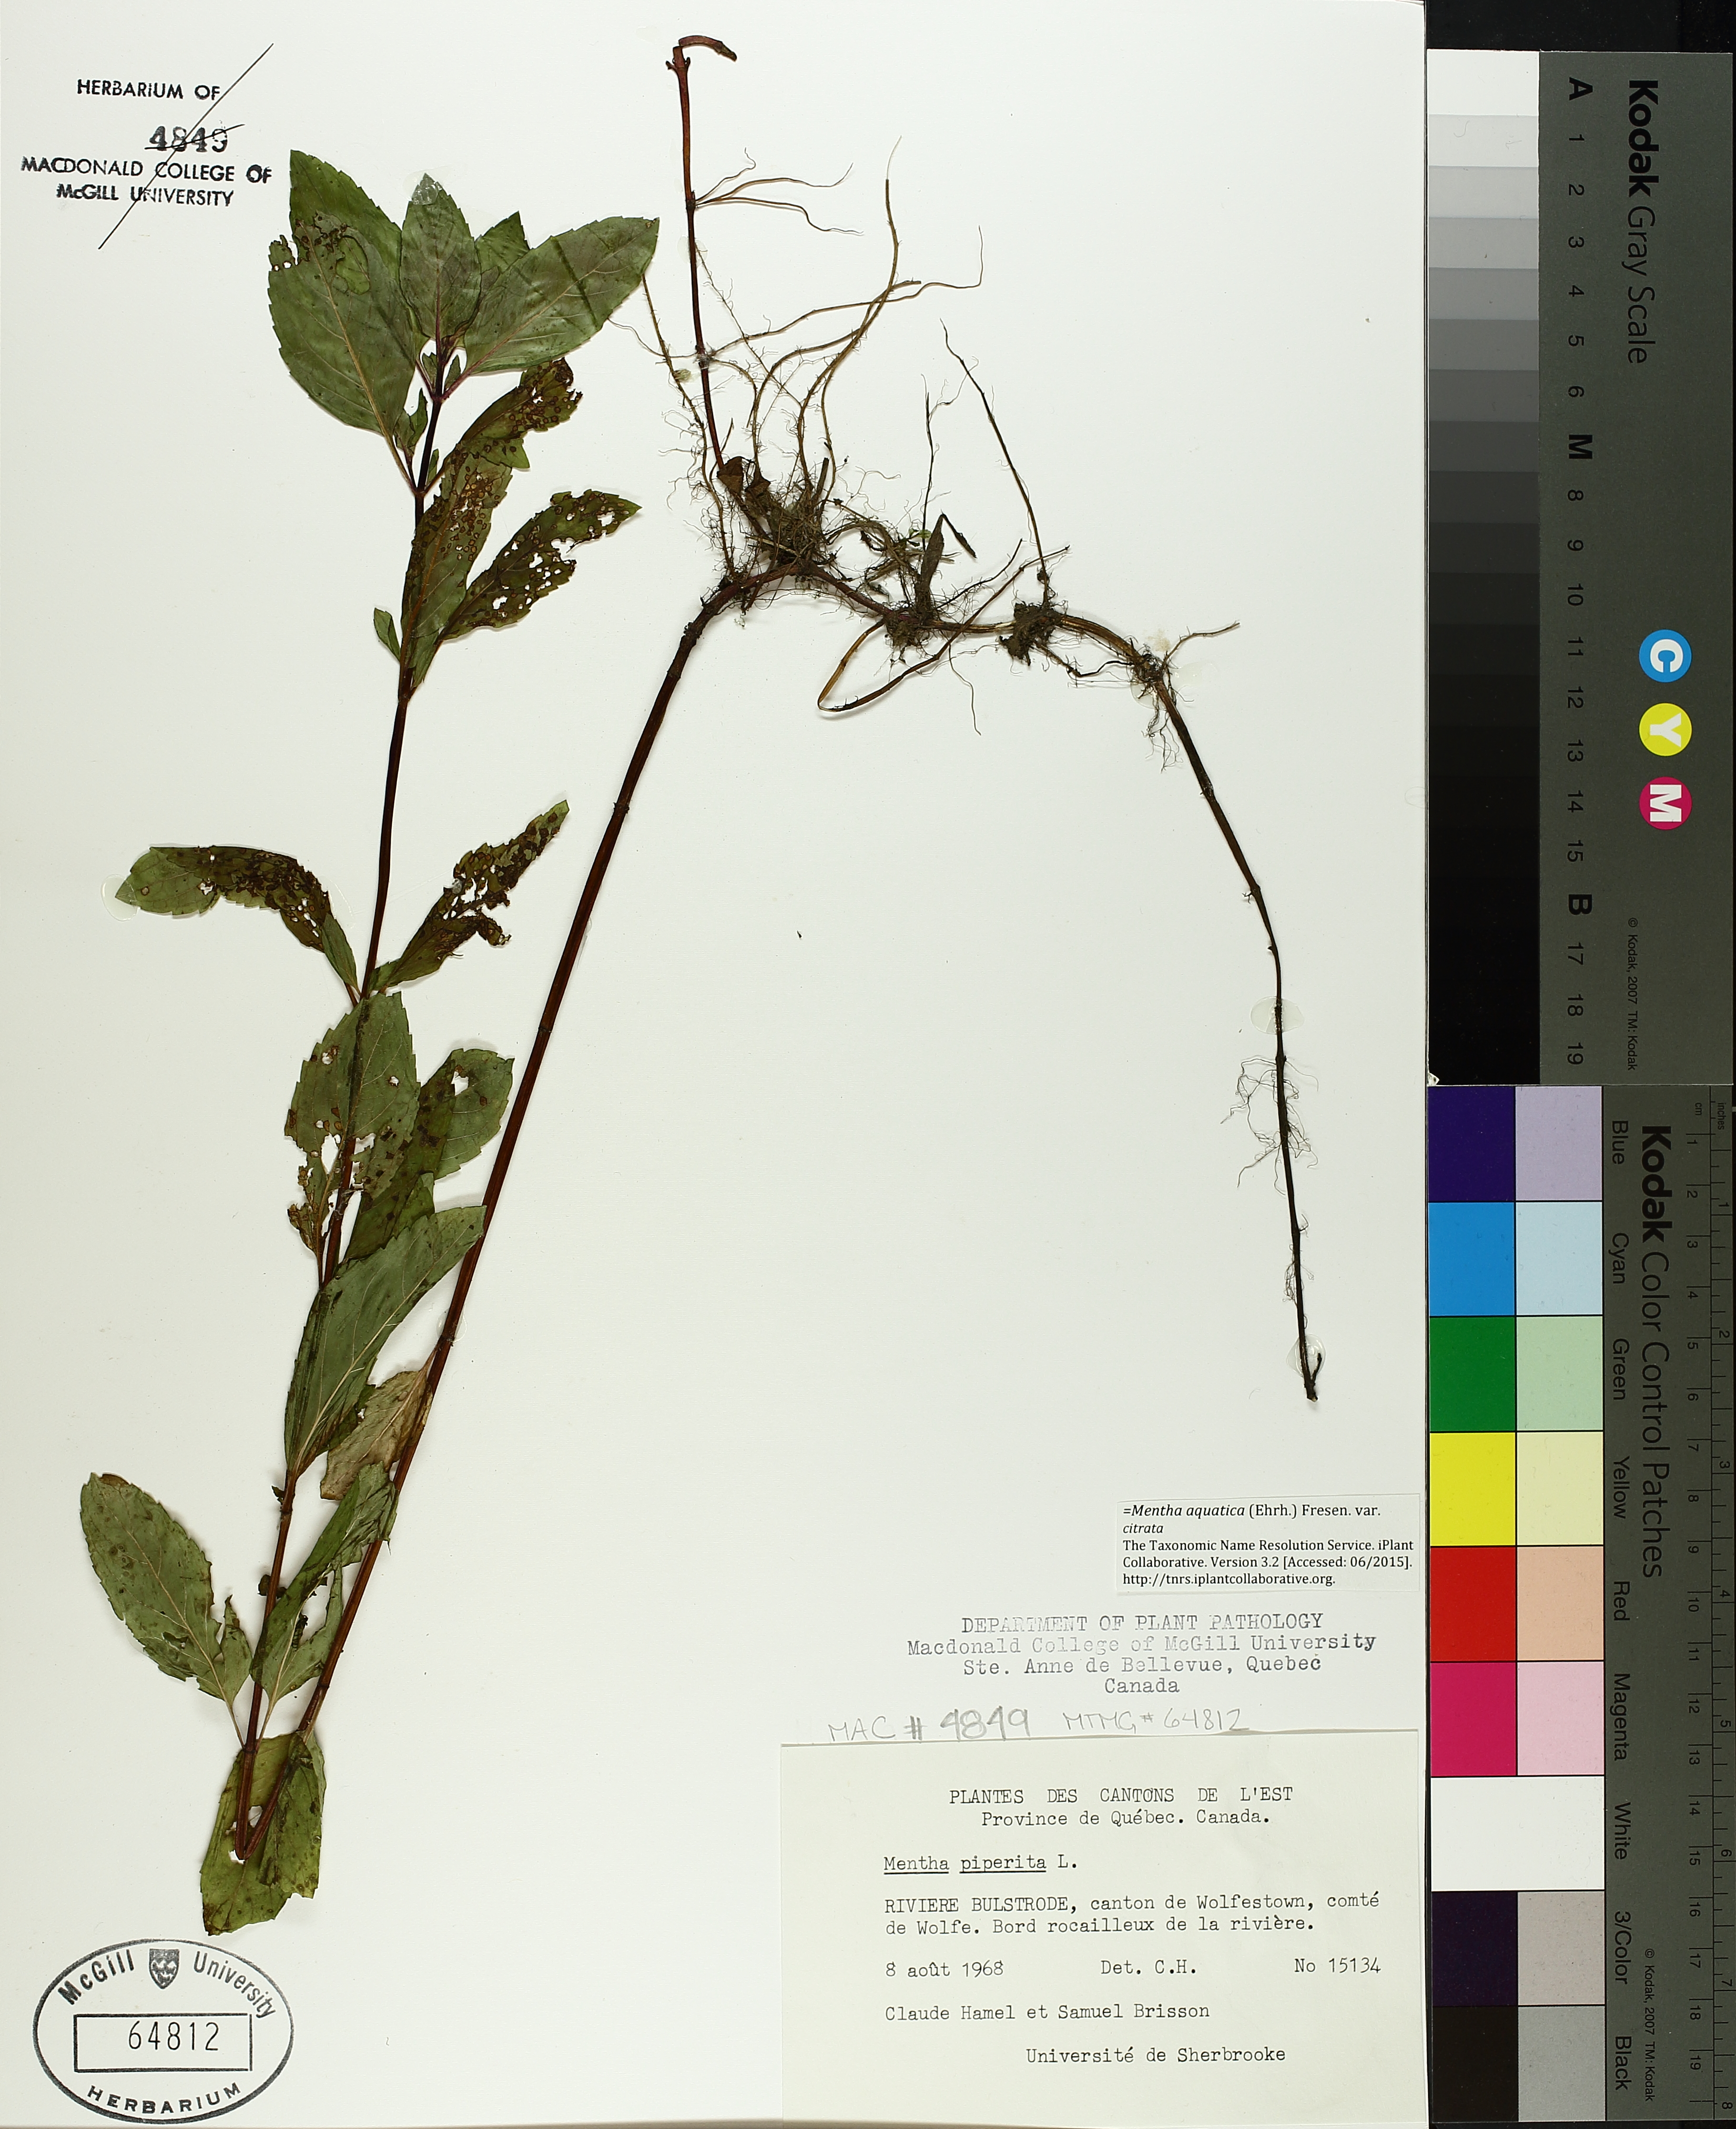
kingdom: Plantae
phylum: Tracheophyta
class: Magnoliopsida
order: Lamiales
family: Lamiaceae
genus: Mentha
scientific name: Mentha piperita
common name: Peppermint
